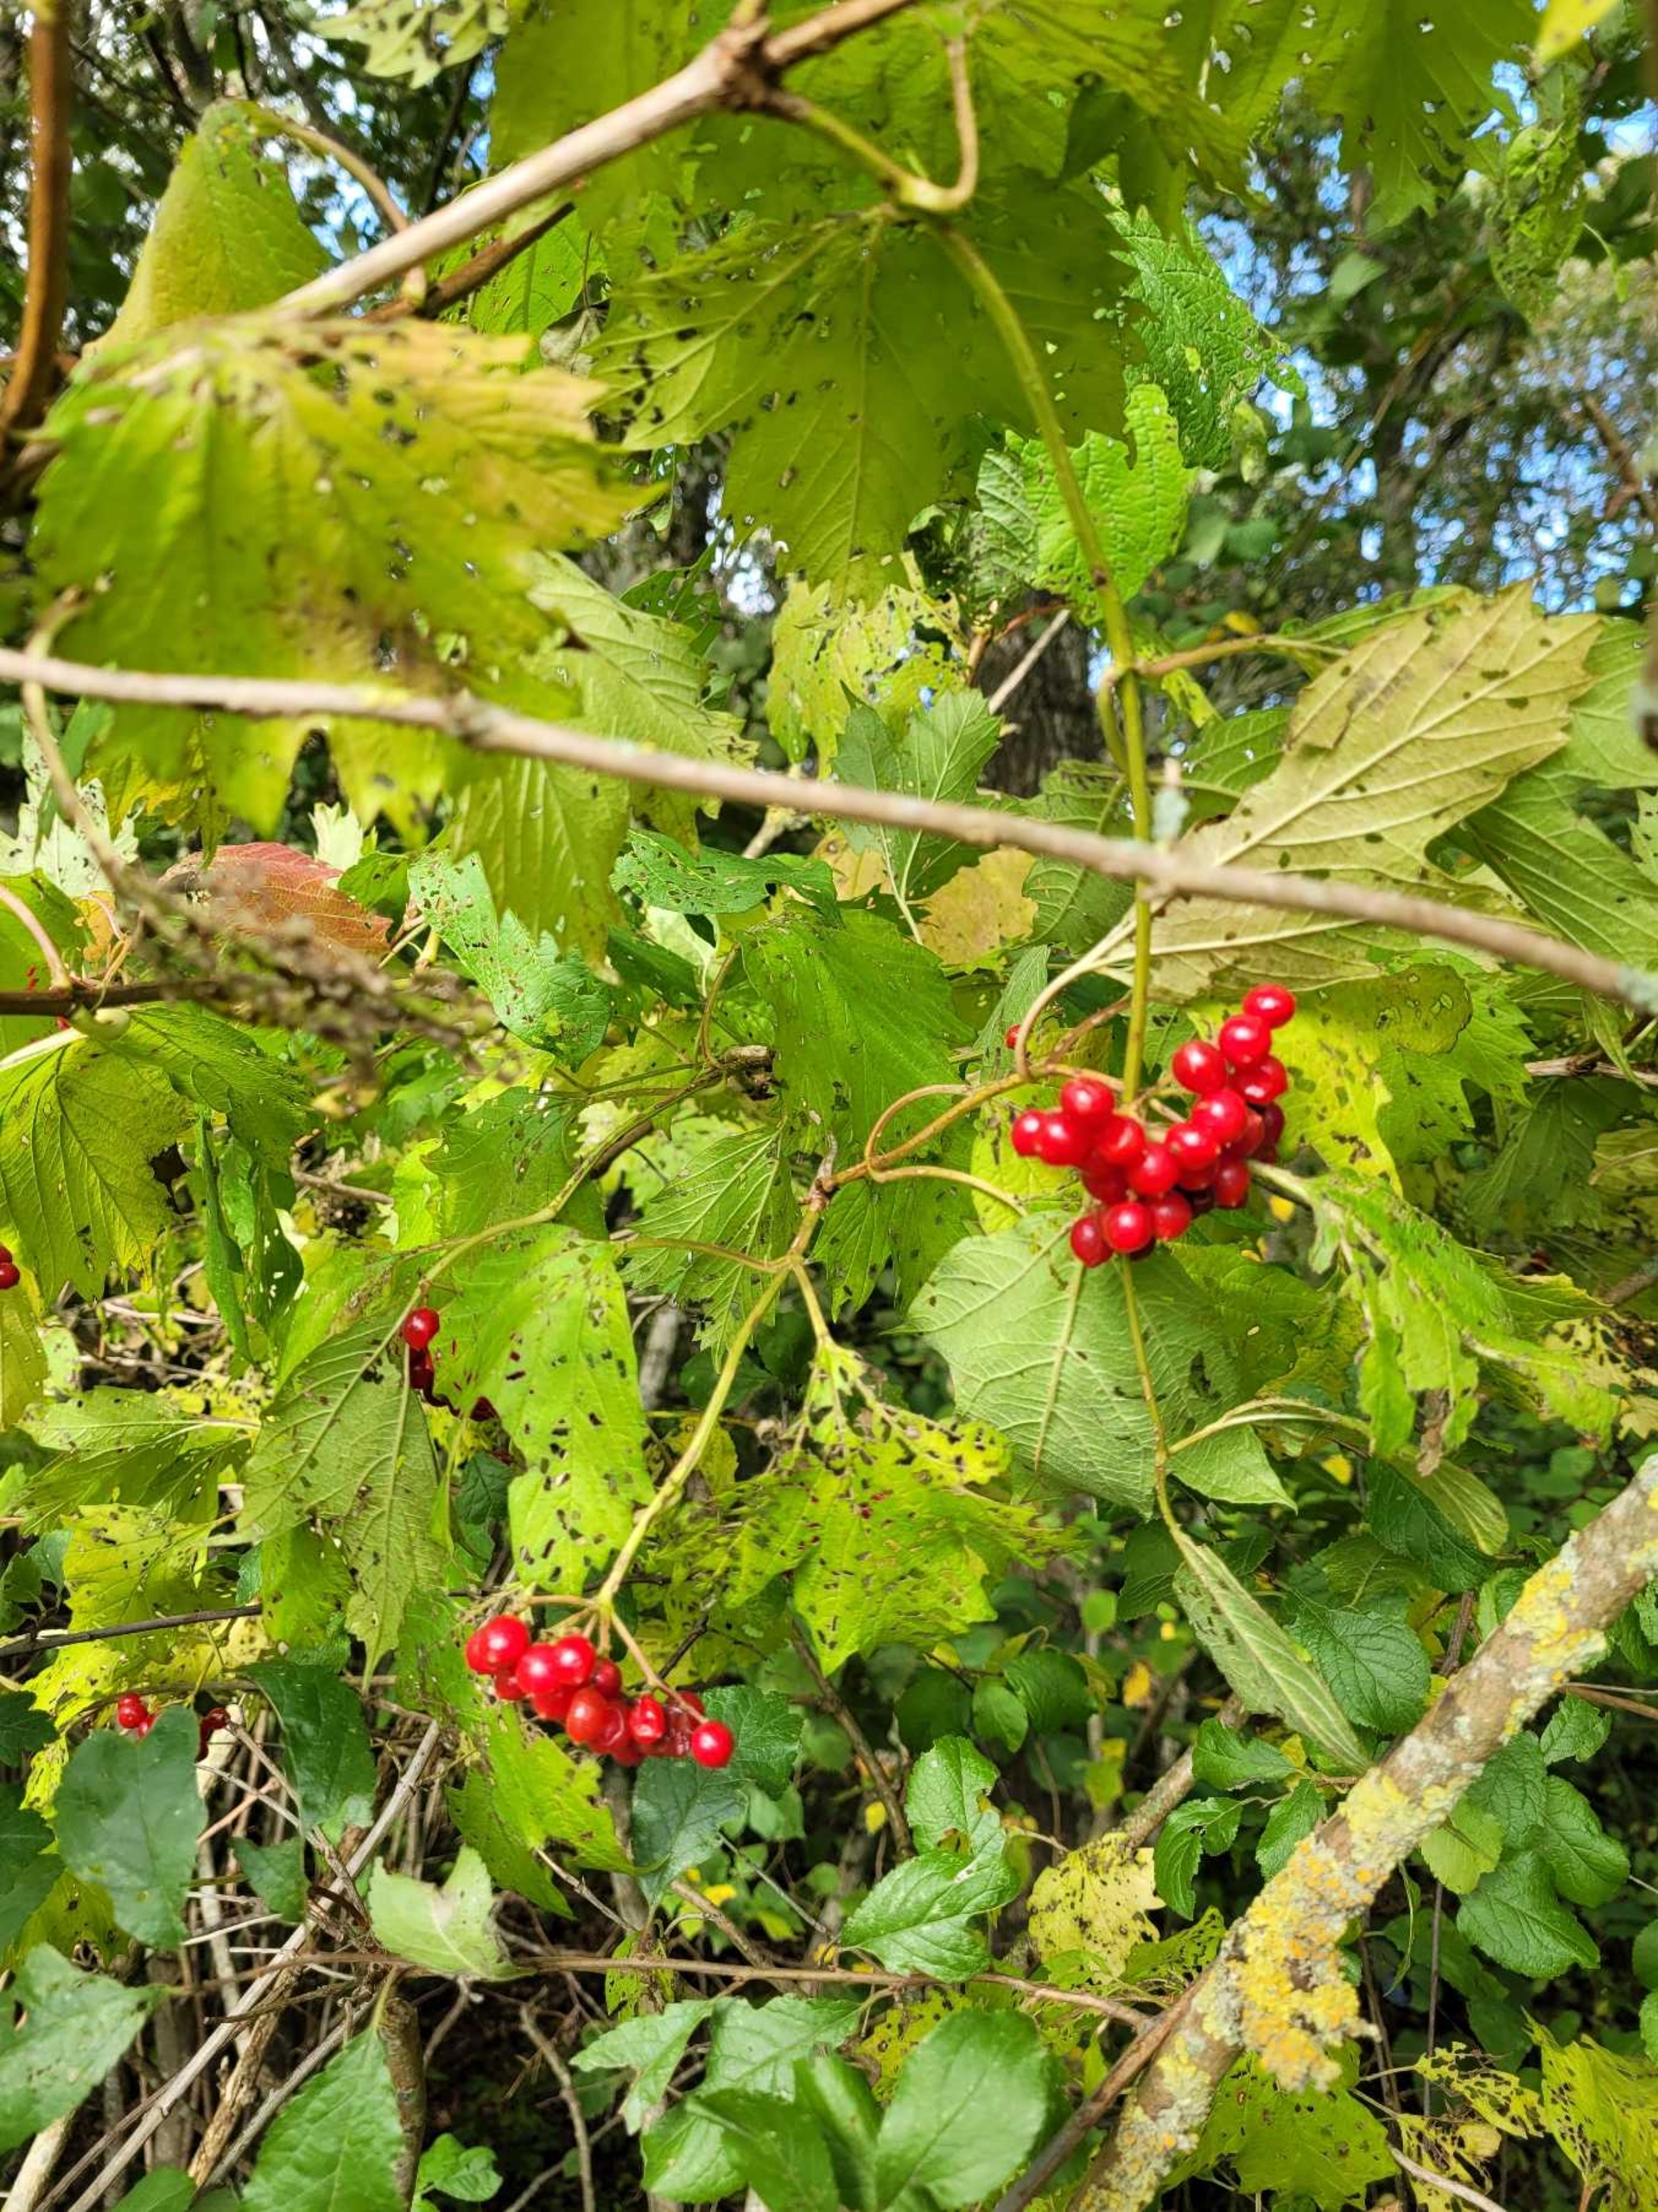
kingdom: Plantae
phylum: Tracheophyta
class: Magnoliopsida
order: Dipsacales
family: Viburnaceae
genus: Viburnum
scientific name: Viburnum opulus
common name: Kvalkved
